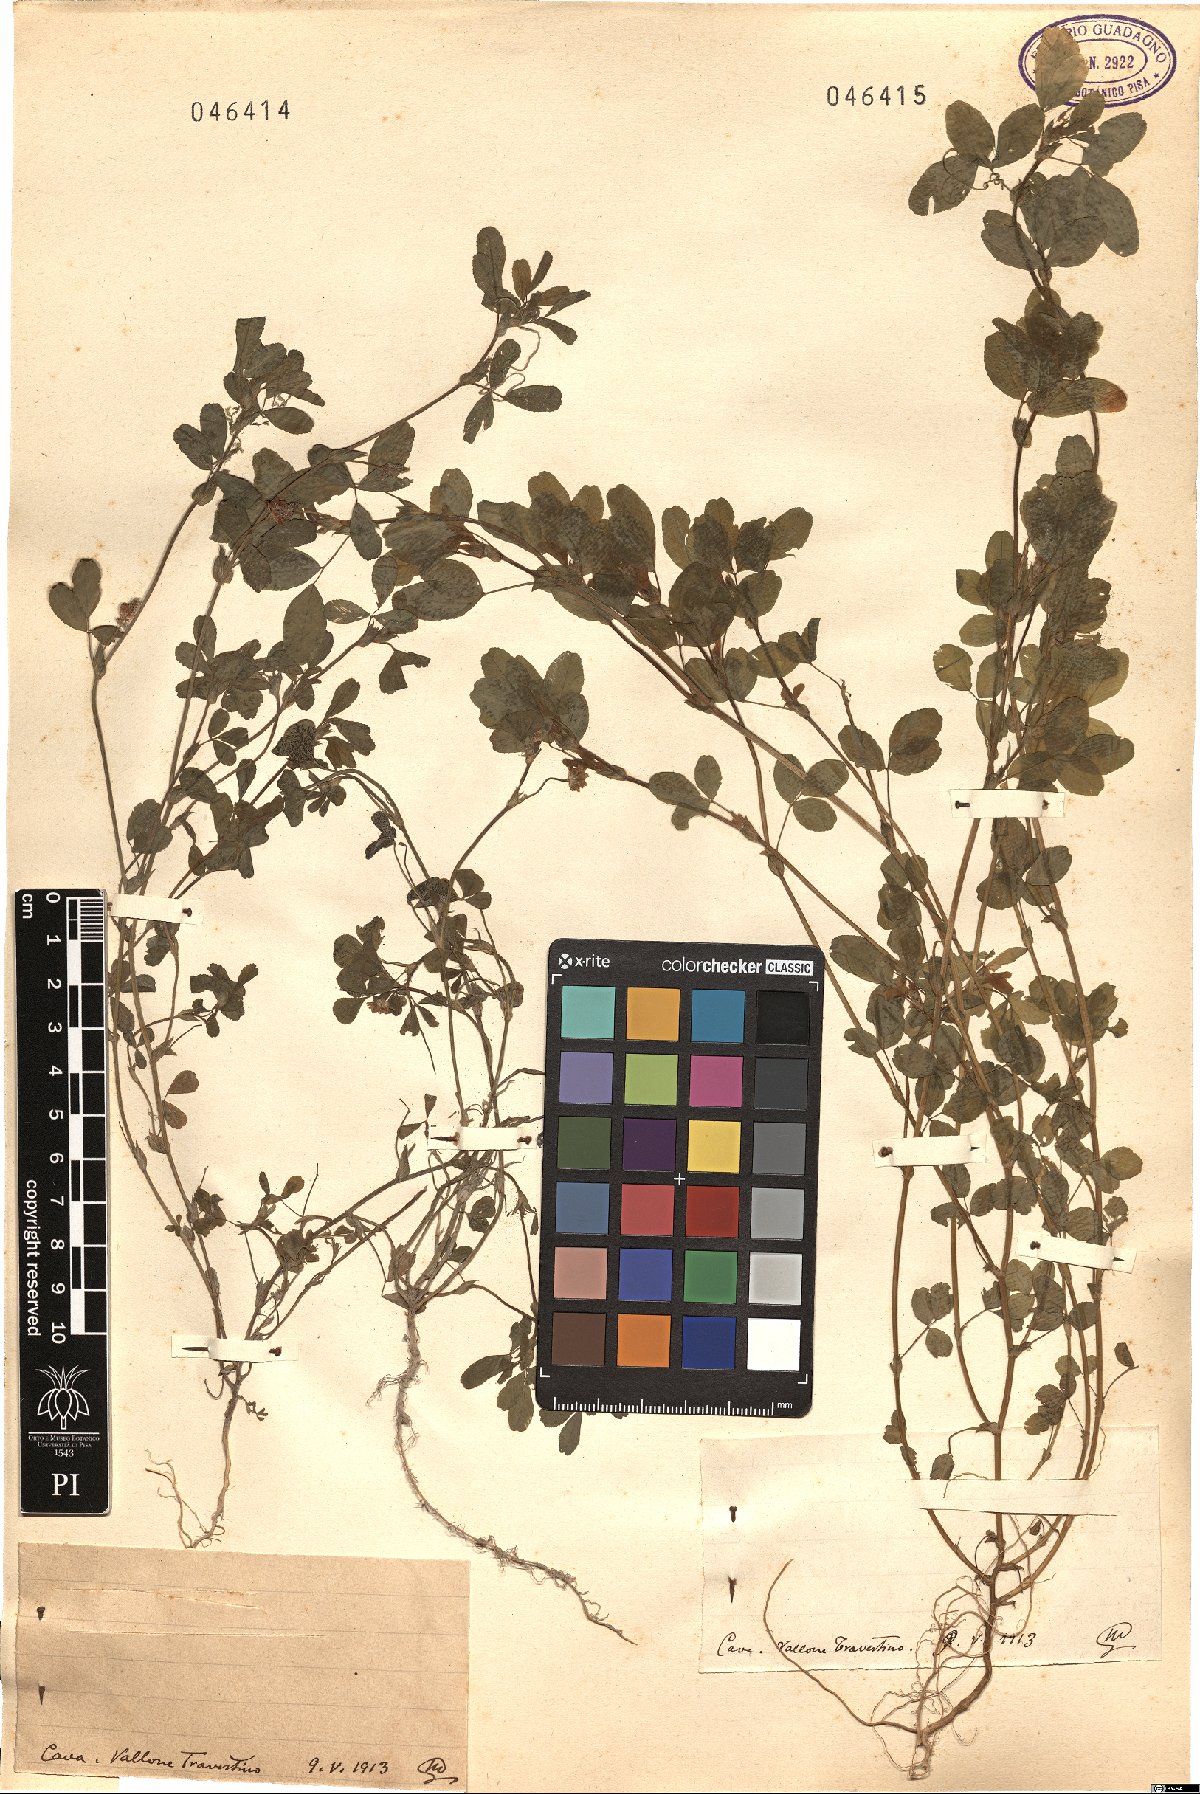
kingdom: Plantae
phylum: Tracheophyta
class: Magnoliopsida
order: Fabales
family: Fabaceae
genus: Trifolium
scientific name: Trifolium
